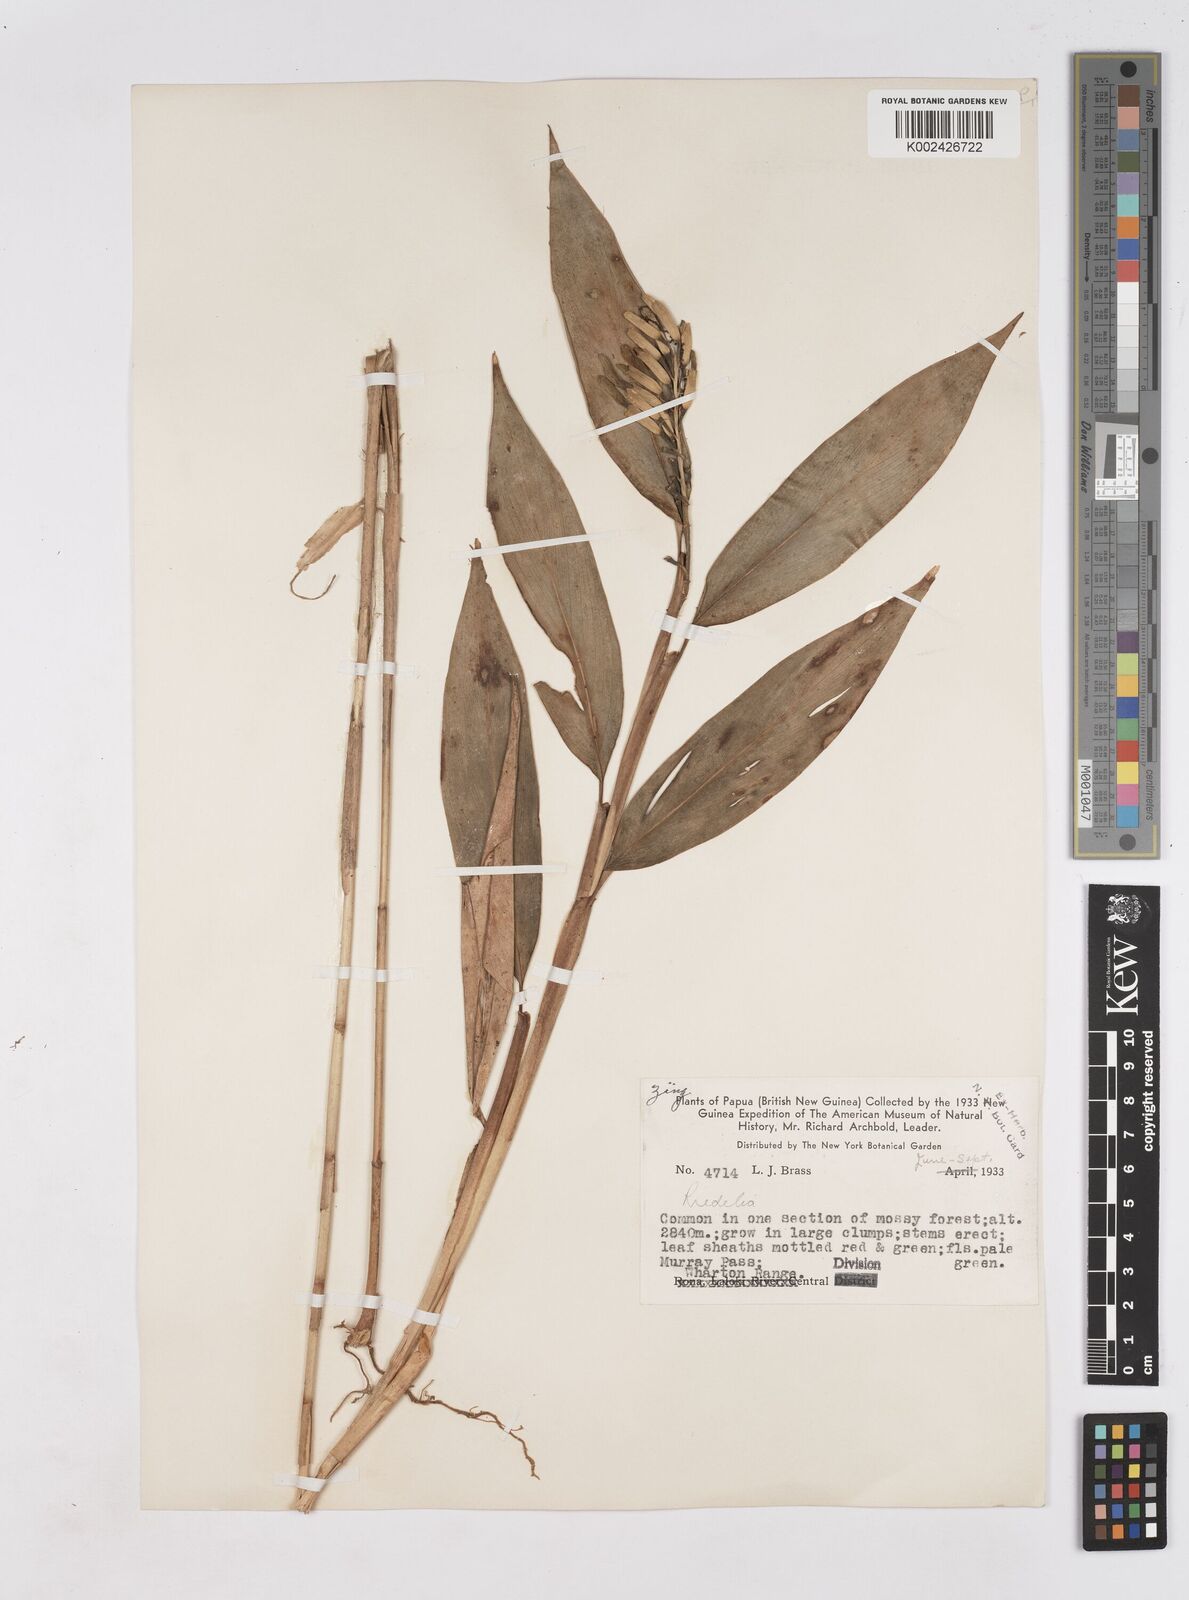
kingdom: Plantae
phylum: Tracheophyta
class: Liliopsida
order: Zingiberales
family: Zingiberaceae
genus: Riedelia
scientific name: Riedelia
